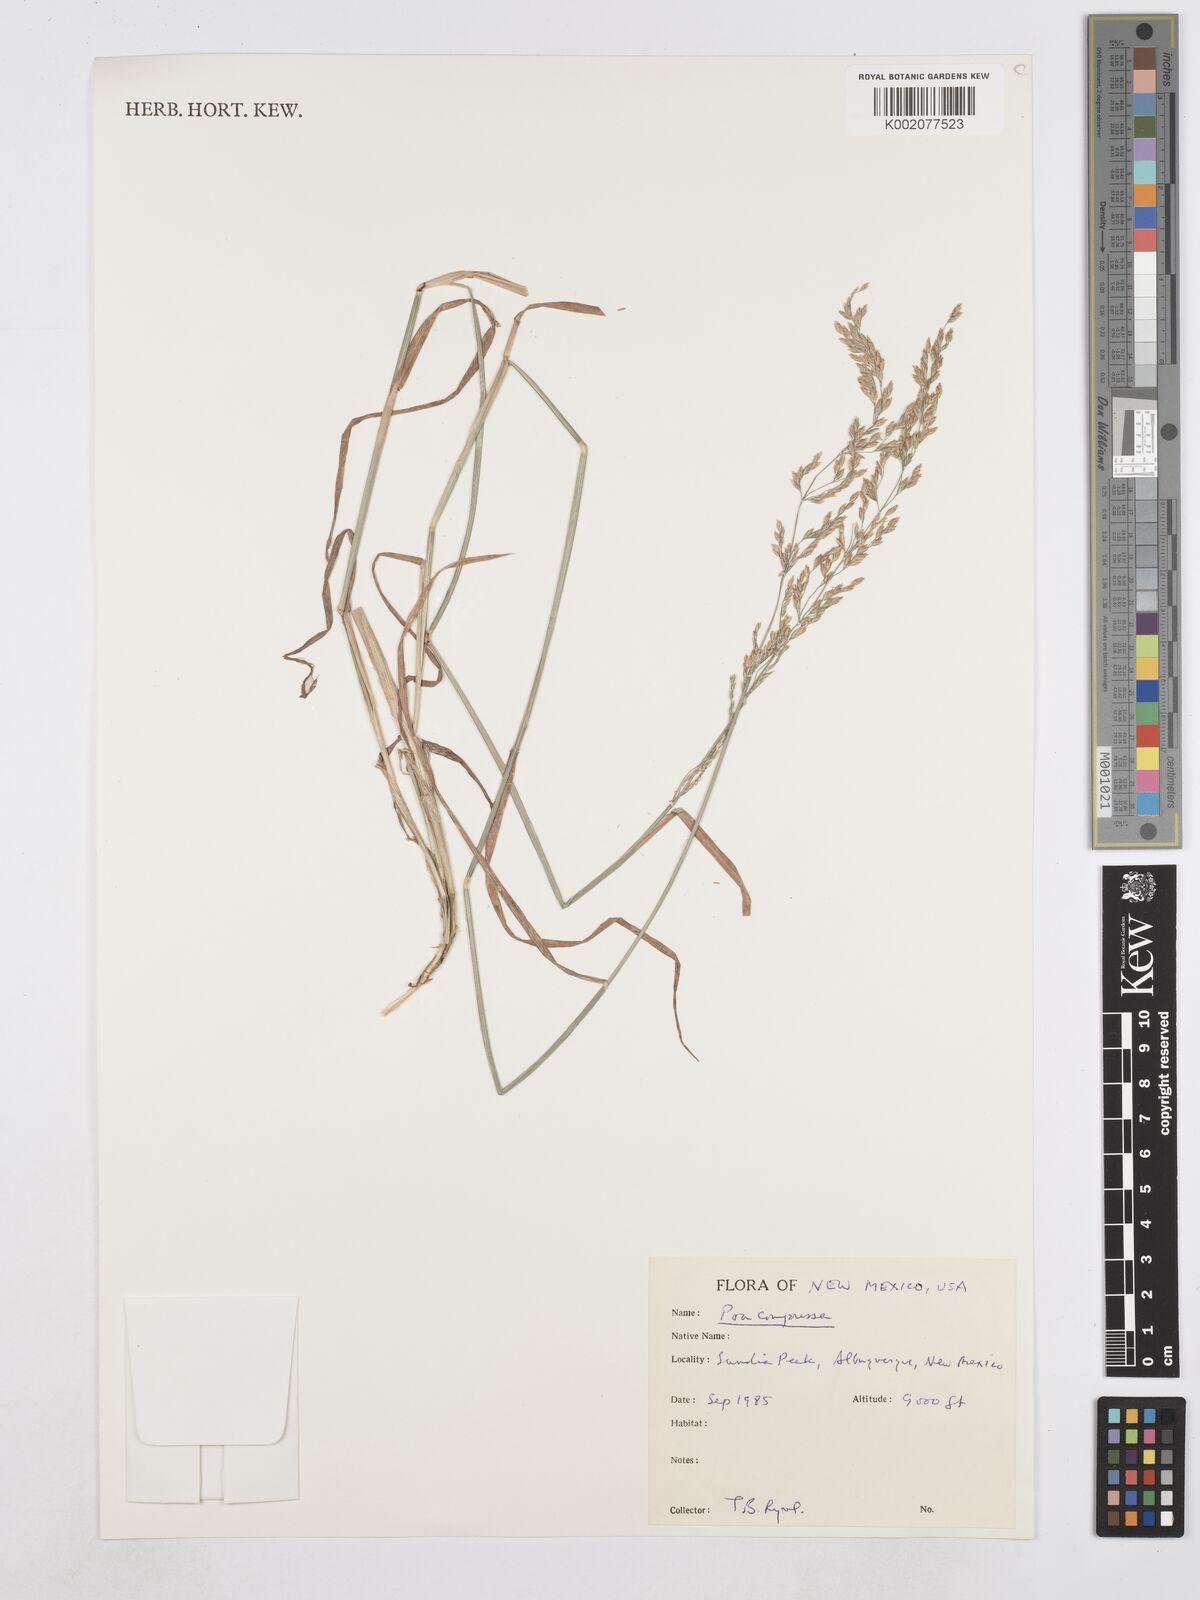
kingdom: Plantae
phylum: Tracheophyta
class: Liliopsida
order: Poales
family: Poaceae
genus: Poa
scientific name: Poa compressa
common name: Canada bluegrass
